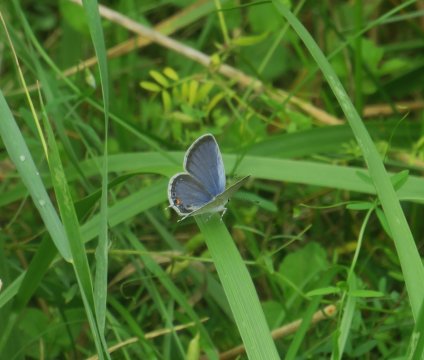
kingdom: Animalia
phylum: Arthropoda
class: Insecta
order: Lepidoptera
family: Lycaenidae
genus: Elkalyce
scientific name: Elkalyce comyntas
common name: Eastern Tailed-Blue
